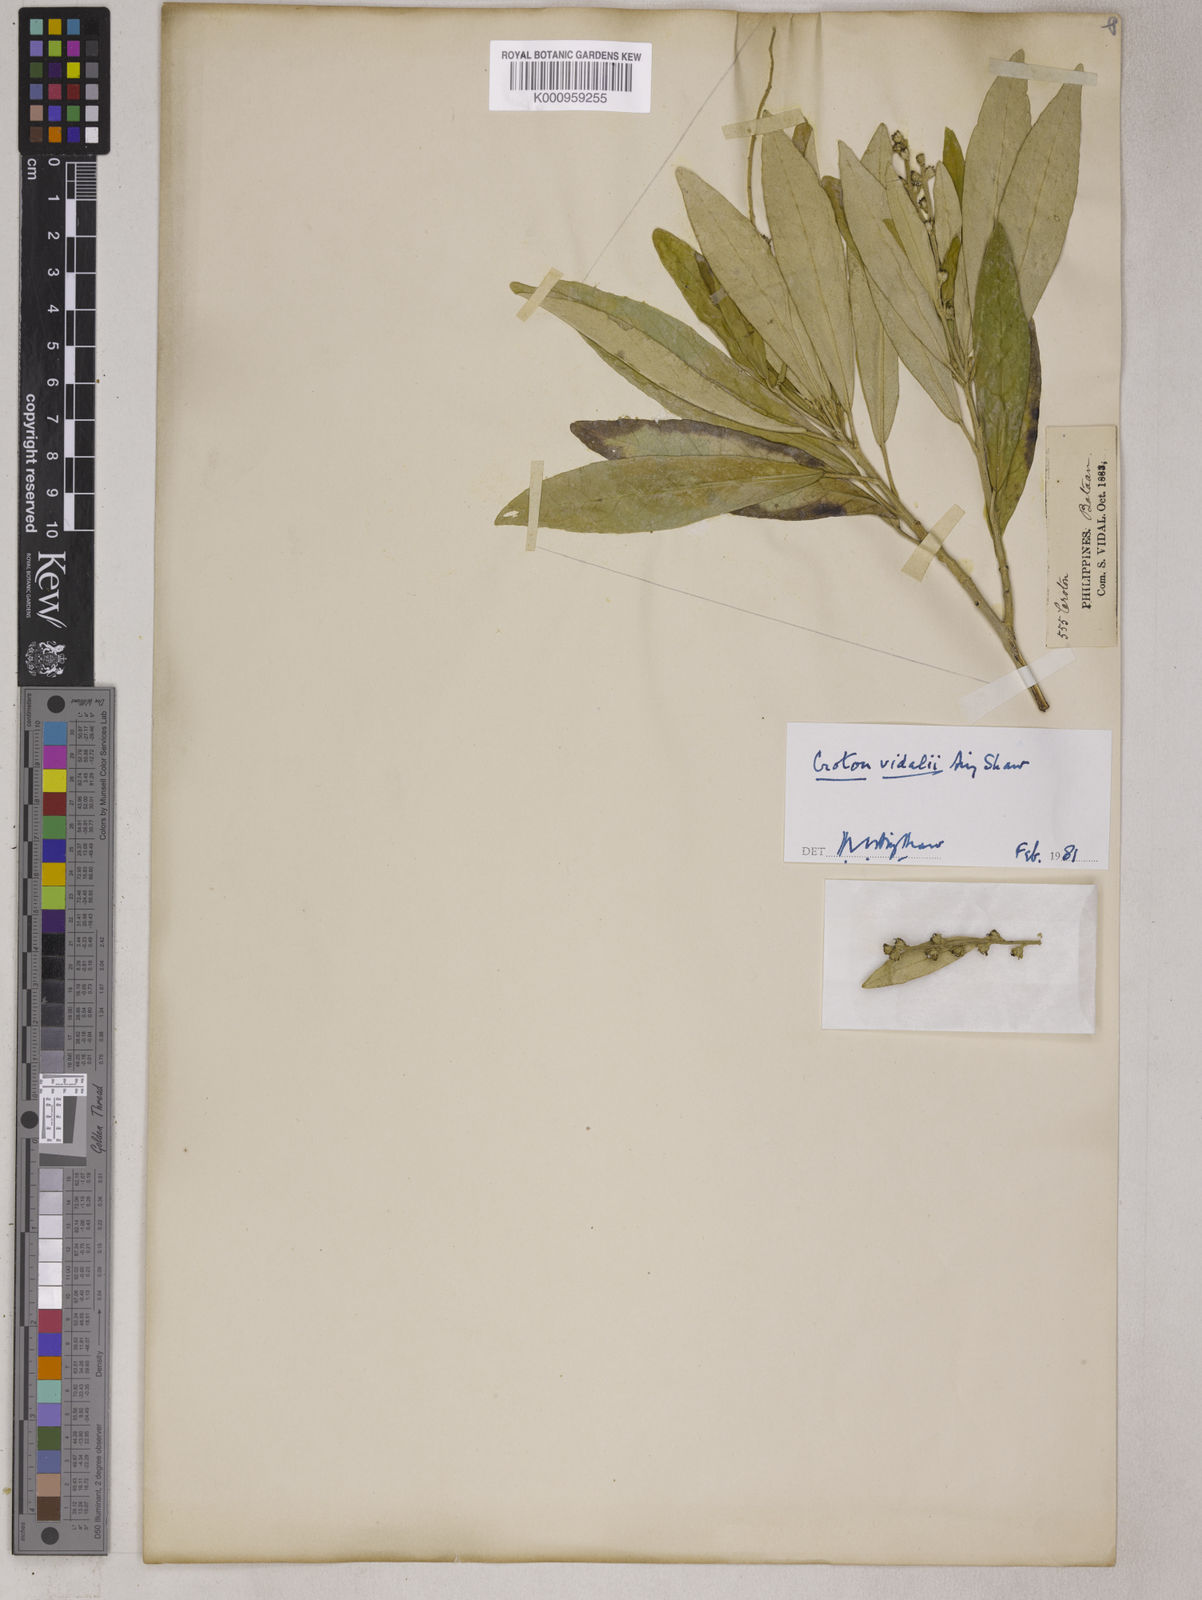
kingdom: Plantae
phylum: Tracheophyta
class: Magnoliopsida
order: Malpighiales
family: Euphorbiaceae
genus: Croton
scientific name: Croton vidalii
